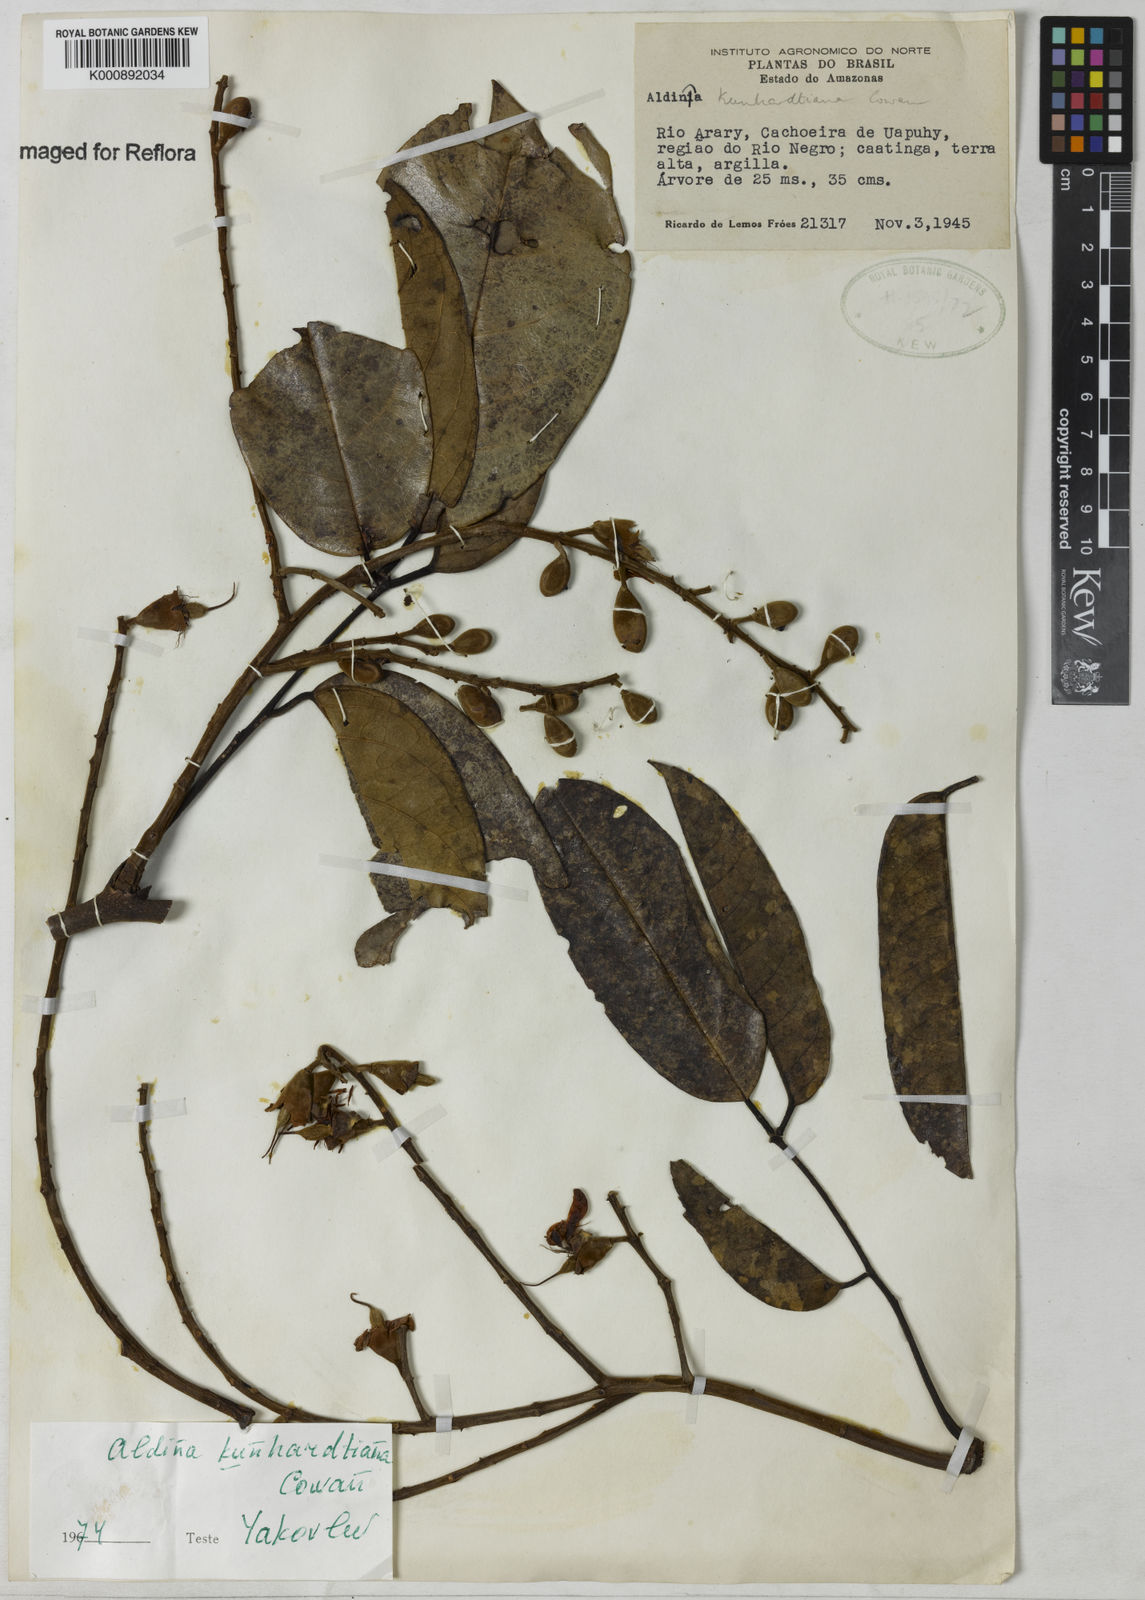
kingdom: Plantae
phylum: Tracheophyta
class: Magnoliopsida
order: Fabales
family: Fabaceae
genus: Aldina
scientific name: Aldina kunhardtiana
